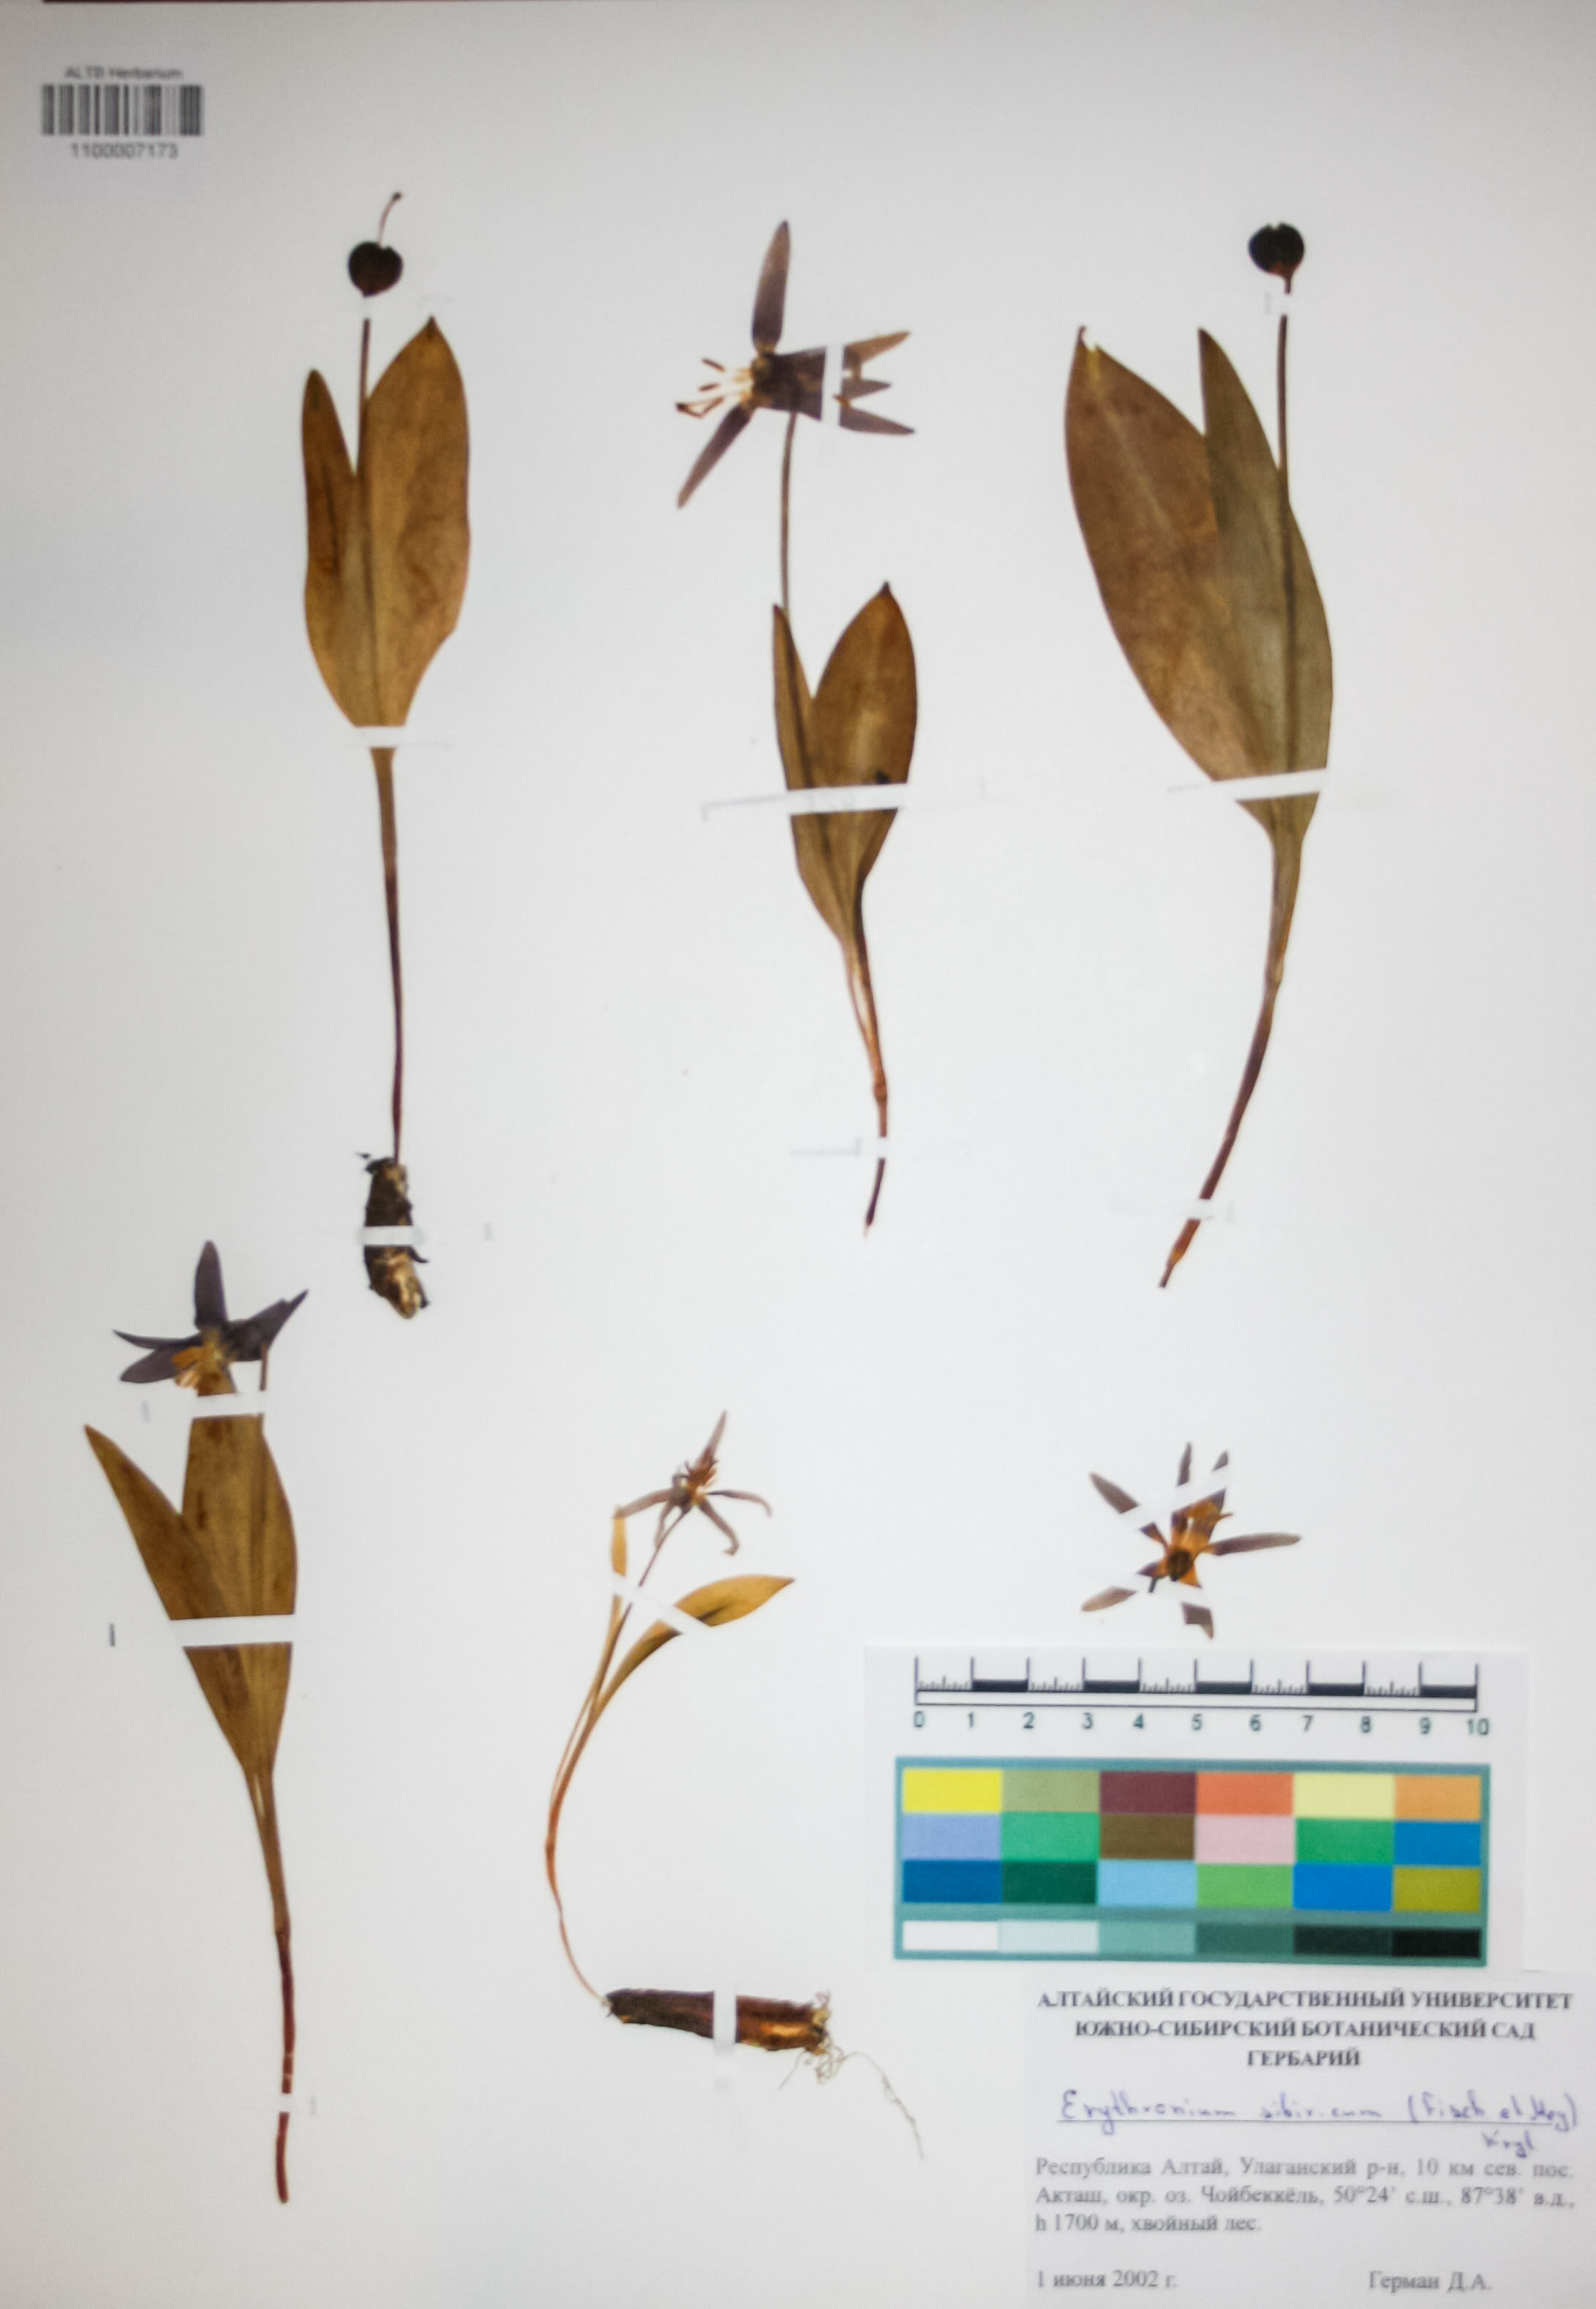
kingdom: Plantae
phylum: Tracheophyta
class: Liliopsida
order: Liliales
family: Liliaceae
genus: Erythronium
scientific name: Erythronium sibiricum
